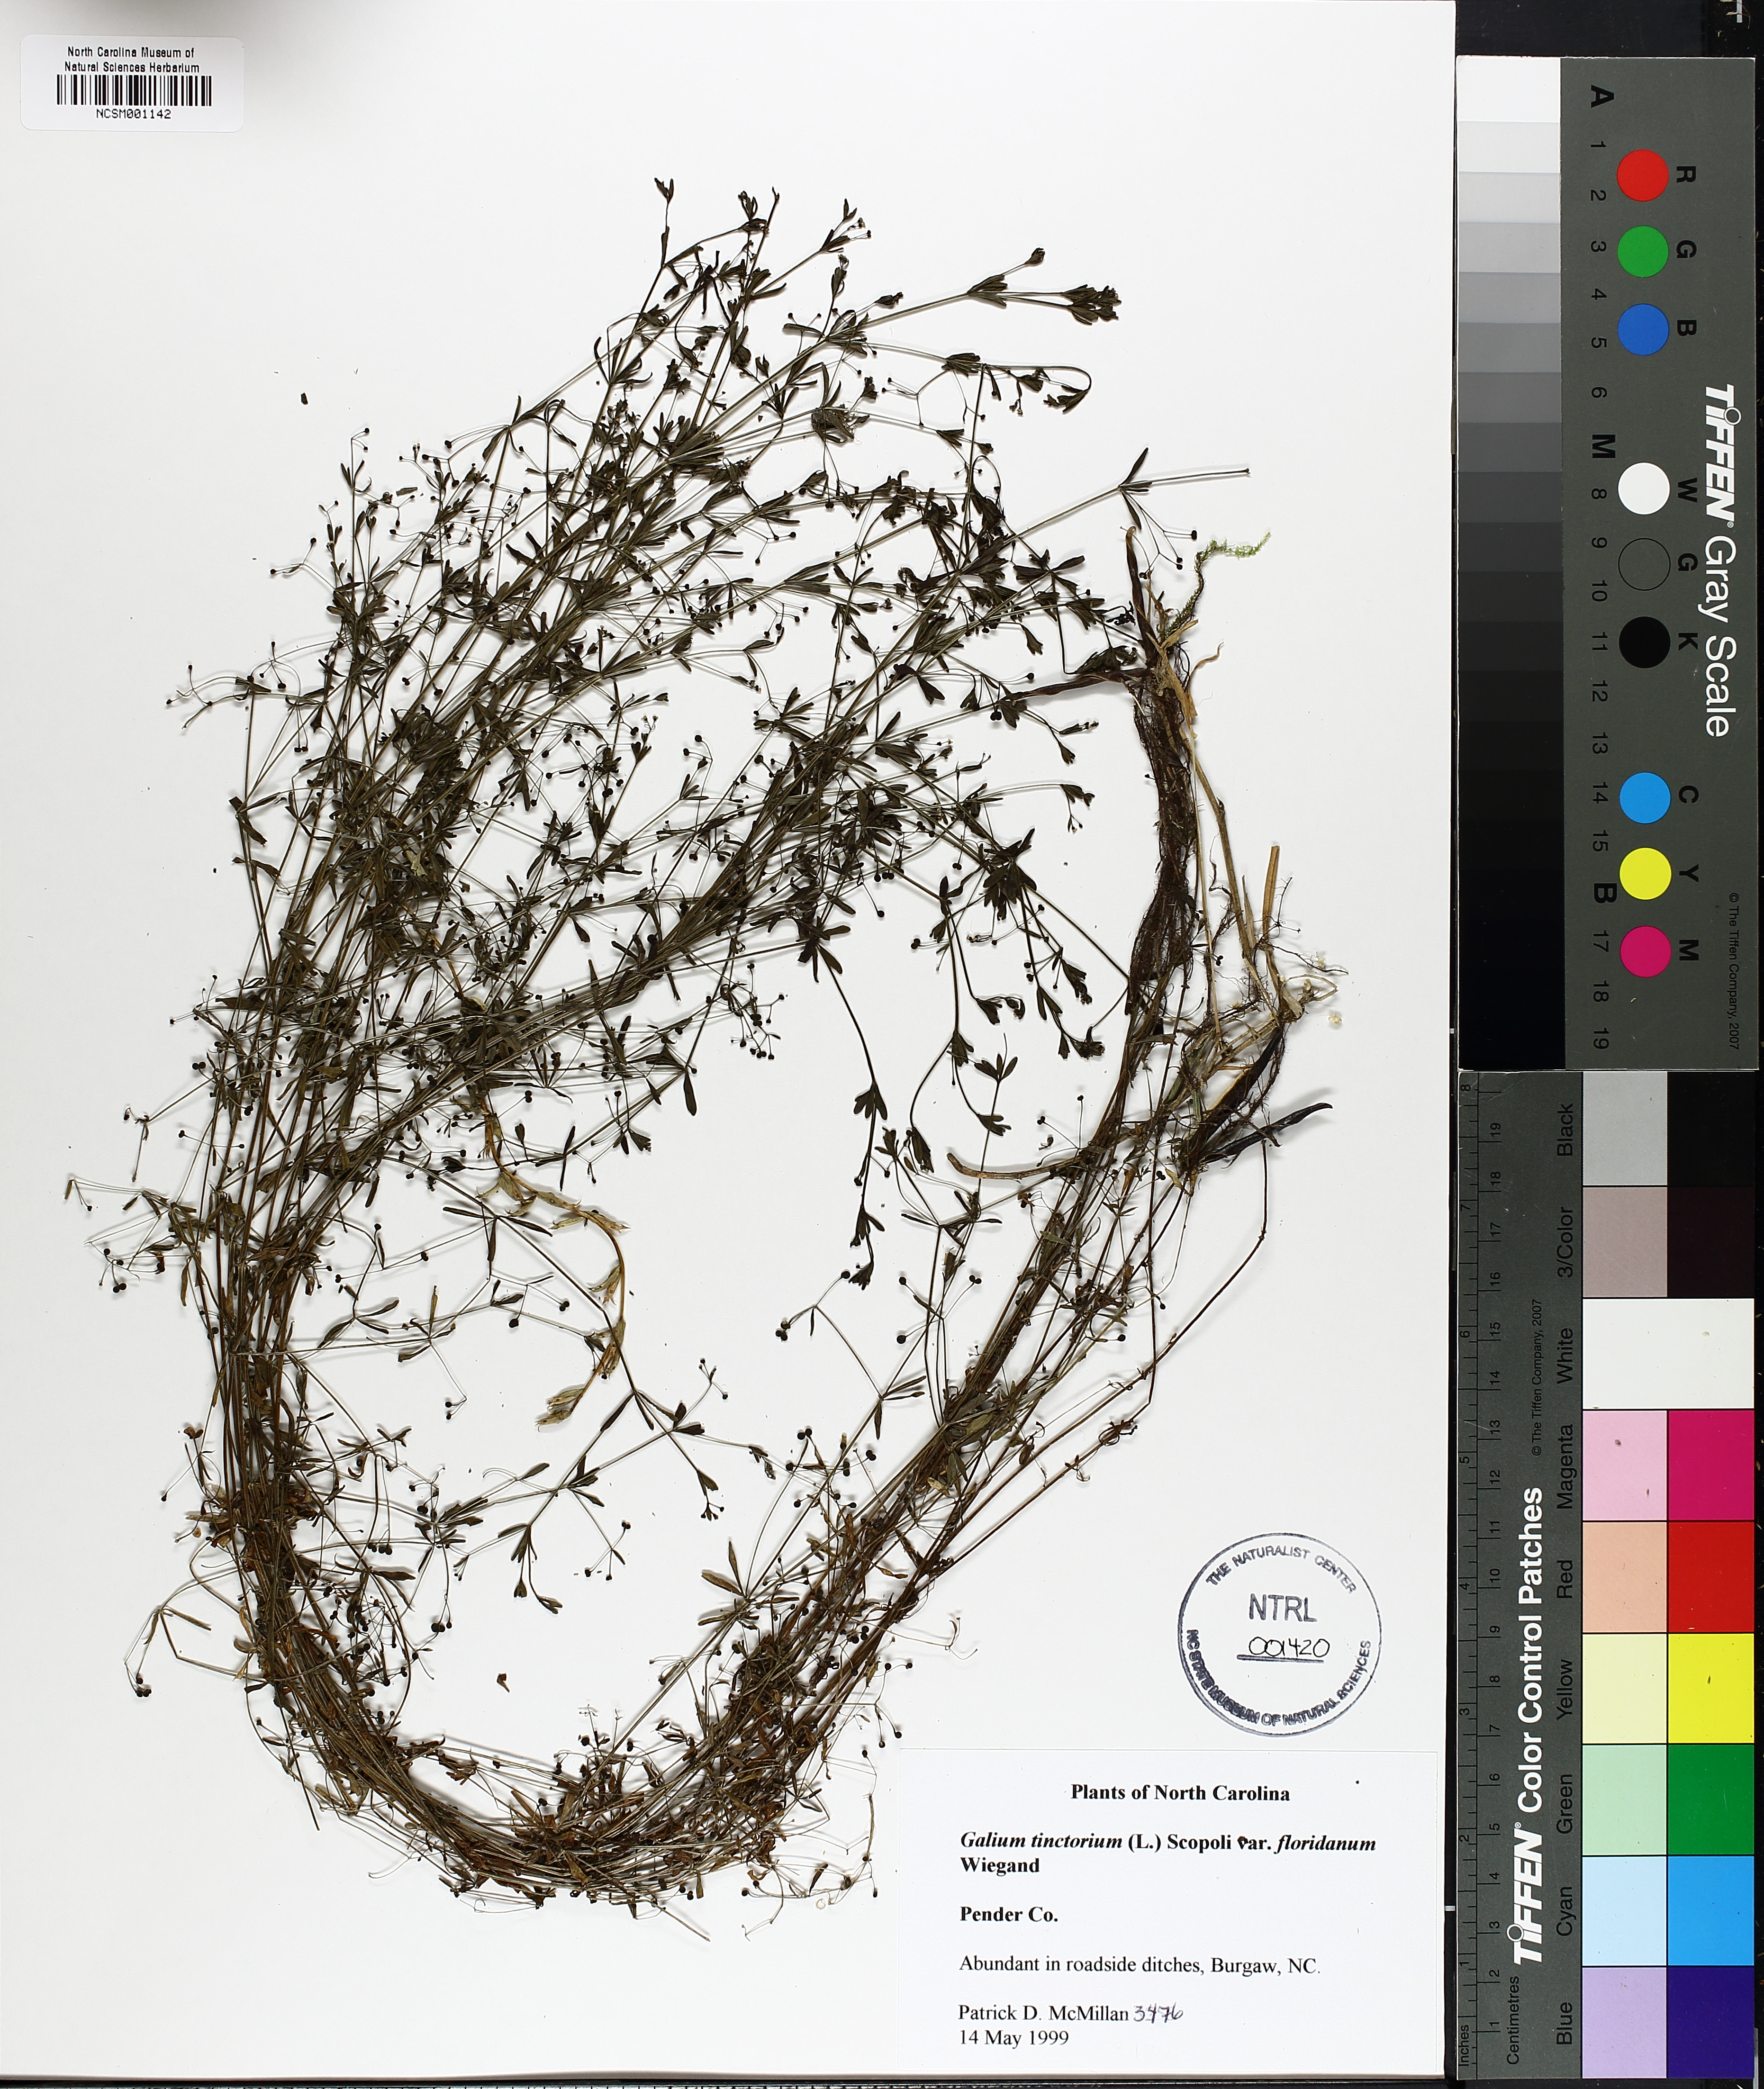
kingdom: Plantae
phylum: Tracheophyta
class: Magnoliopsida
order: Gentianales
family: Rubiaceae
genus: Galium
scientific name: Galium tinctorium
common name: Bedstraw
